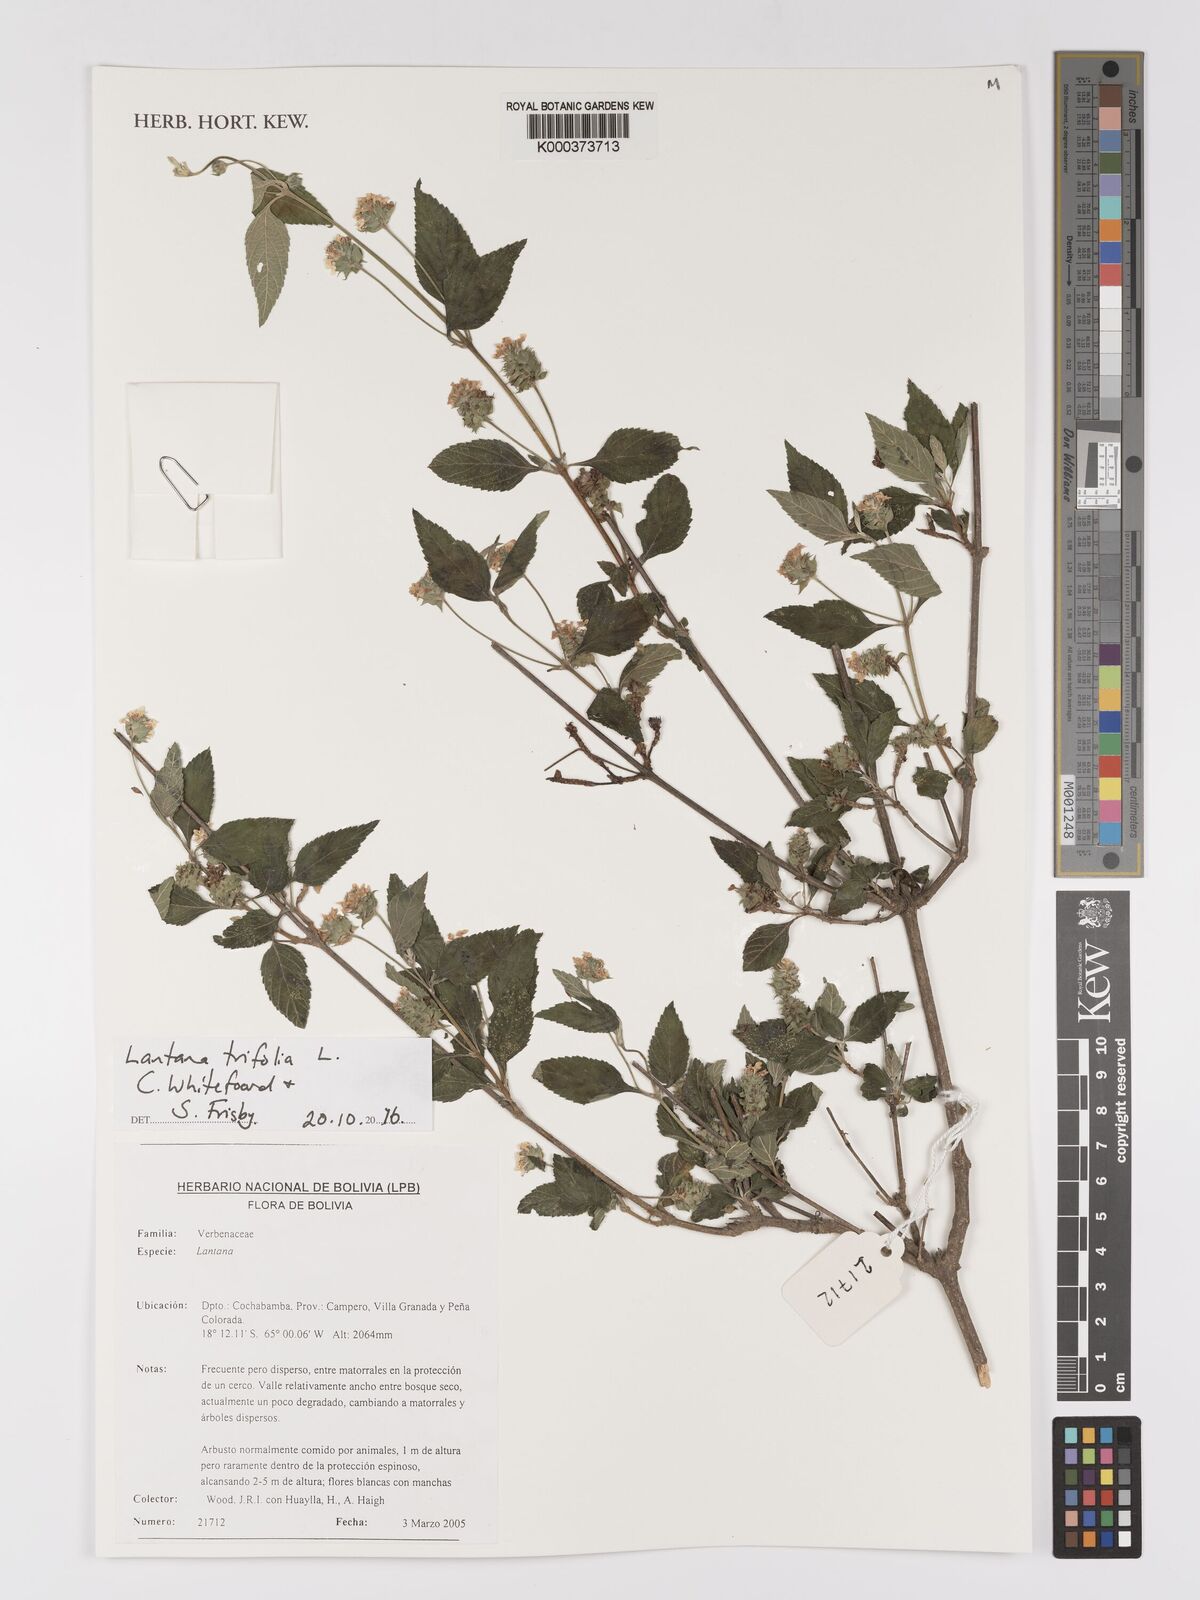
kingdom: Plantae
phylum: Tracheophyta
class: Magnoliopsida
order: Lamiales
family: Verbenaceae
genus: Lantana
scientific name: Lantana trifolia
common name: Sweet-sage
